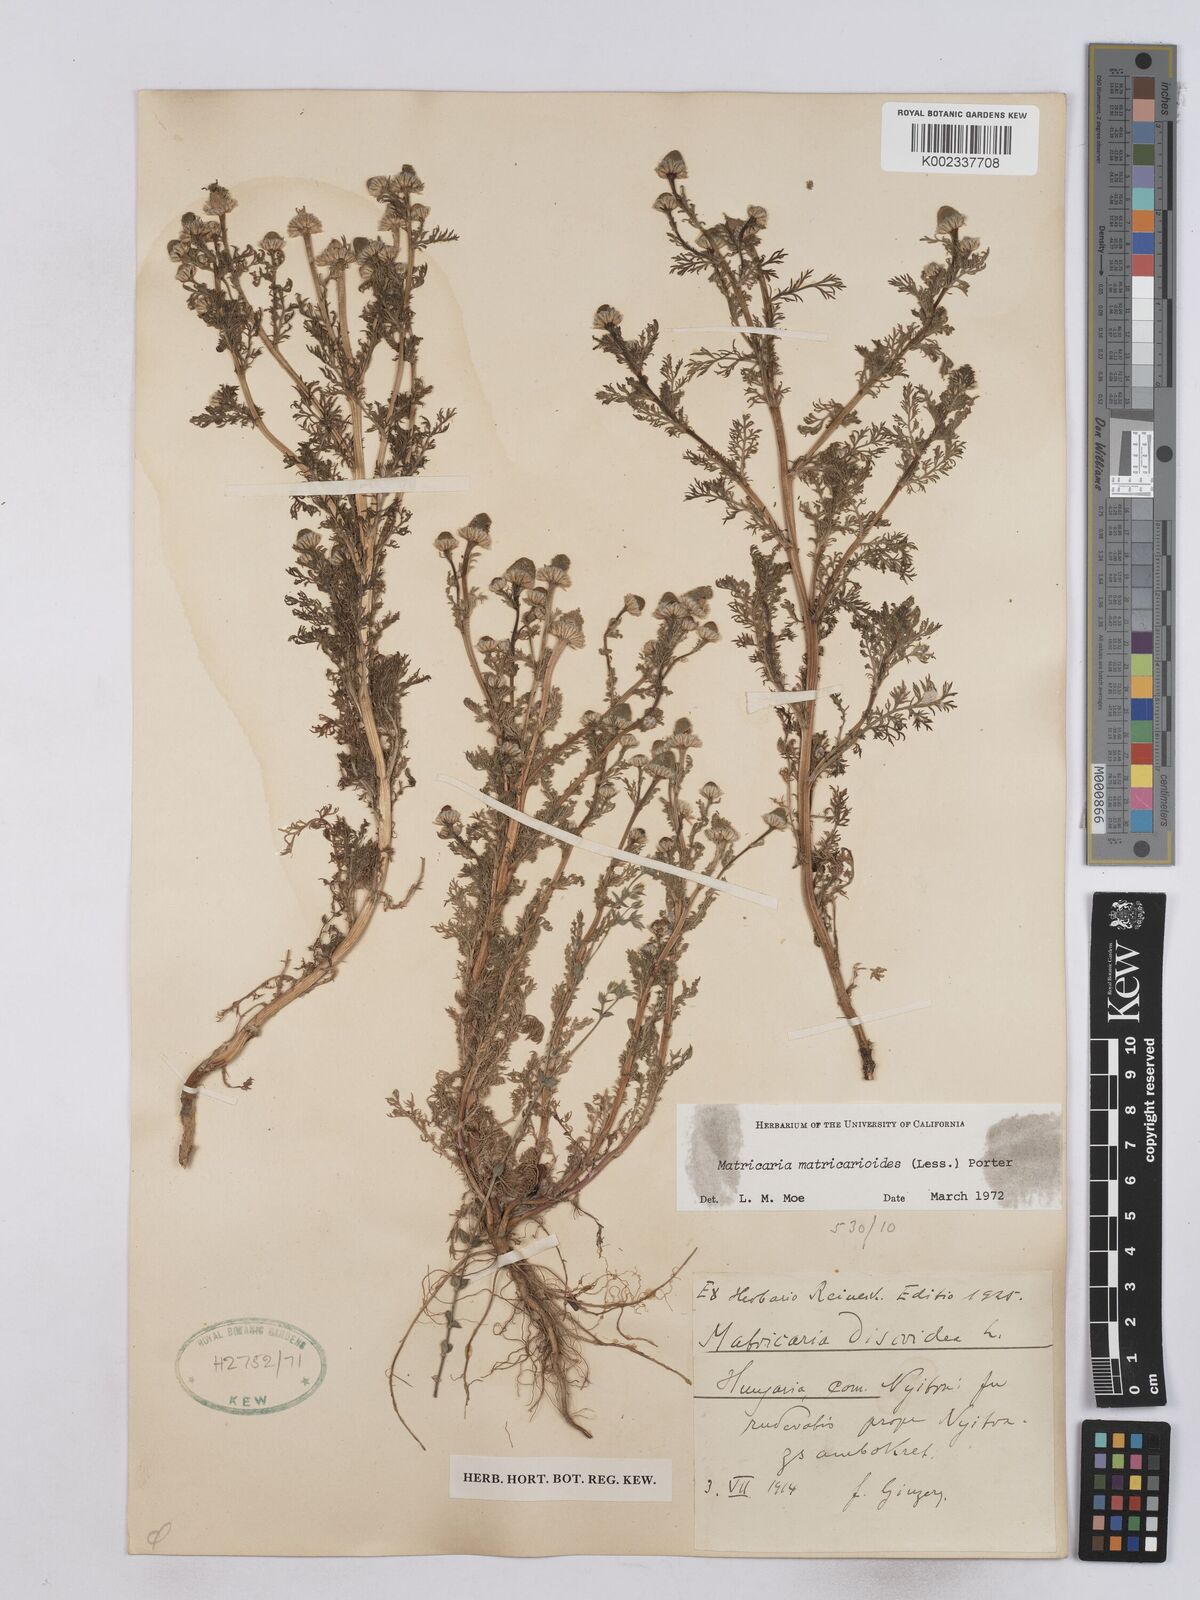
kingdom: Plantae
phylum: Tracheophyta
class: Magnoliopsida
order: Asterales
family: Asteraceae
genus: Matricaria
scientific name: Matricaria discoidea
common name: Disc mayweed
